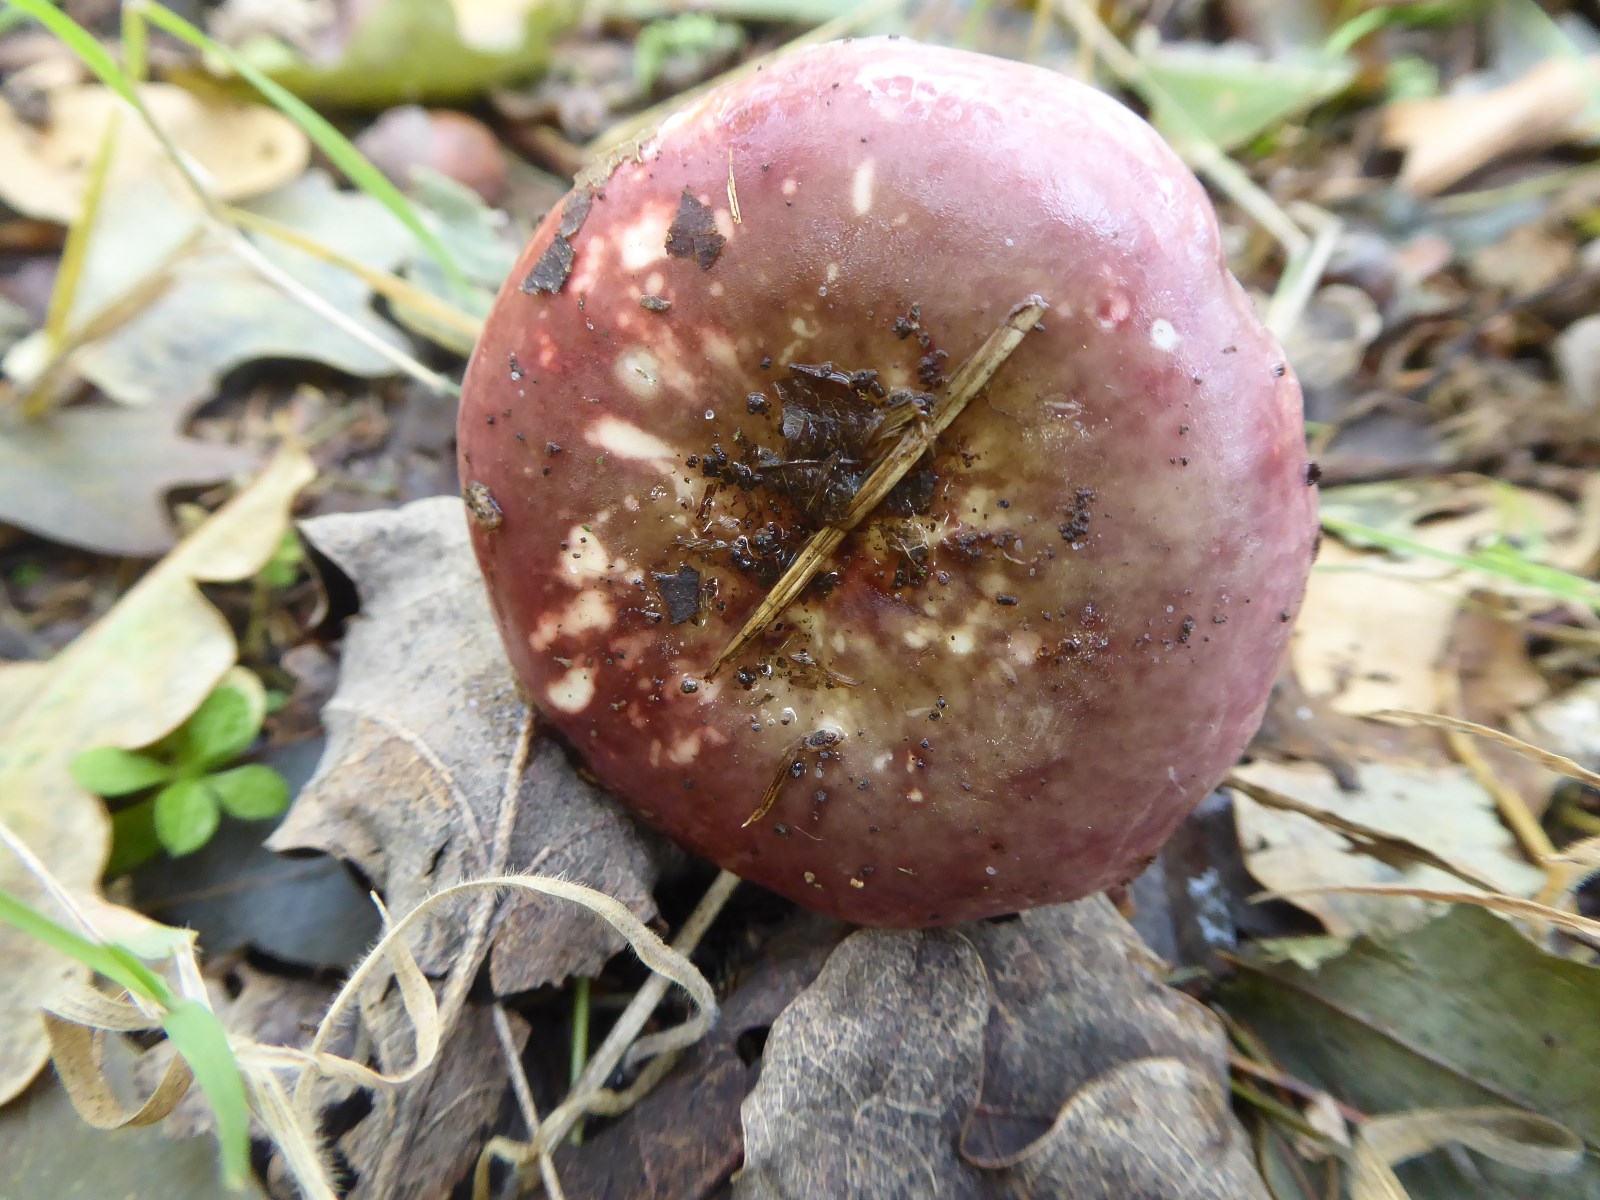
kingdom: Fungi
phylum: Basidiomycota
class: Agaricomycetes
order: Russulales
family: Russulaceae
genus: Russula
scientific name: Russula fragilis
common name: savbladet skørhat
